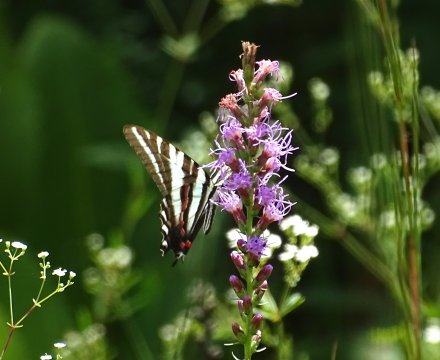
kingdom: Animalia
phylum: Arthropoda
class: Insecta
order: Lepidoptera
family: Papilionidae
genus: Protographium
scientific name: Protographium marcellus
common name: Zebra Swallowtail
